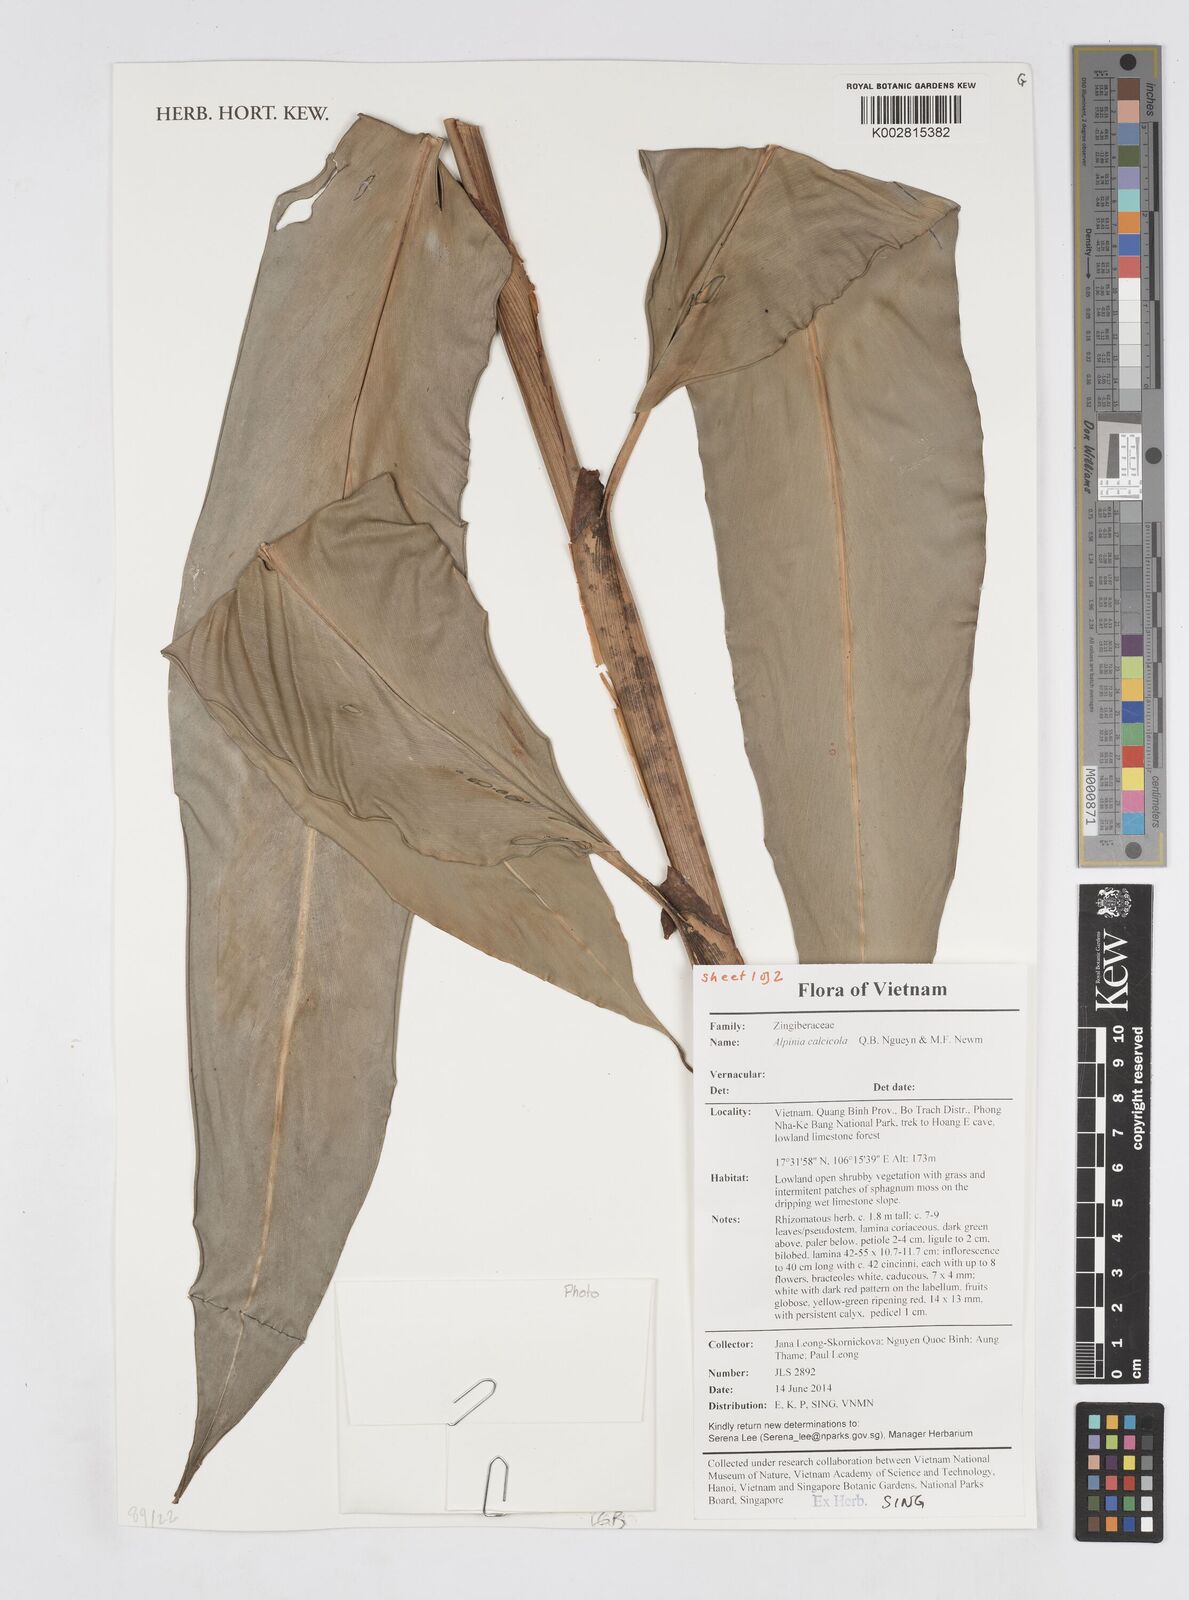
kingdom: Plantae
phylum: Tracheophyta
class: Liliopsida
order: Zingiberales
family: Zingiberaceae
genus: Alpinia
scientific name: Alpinia calcicola
